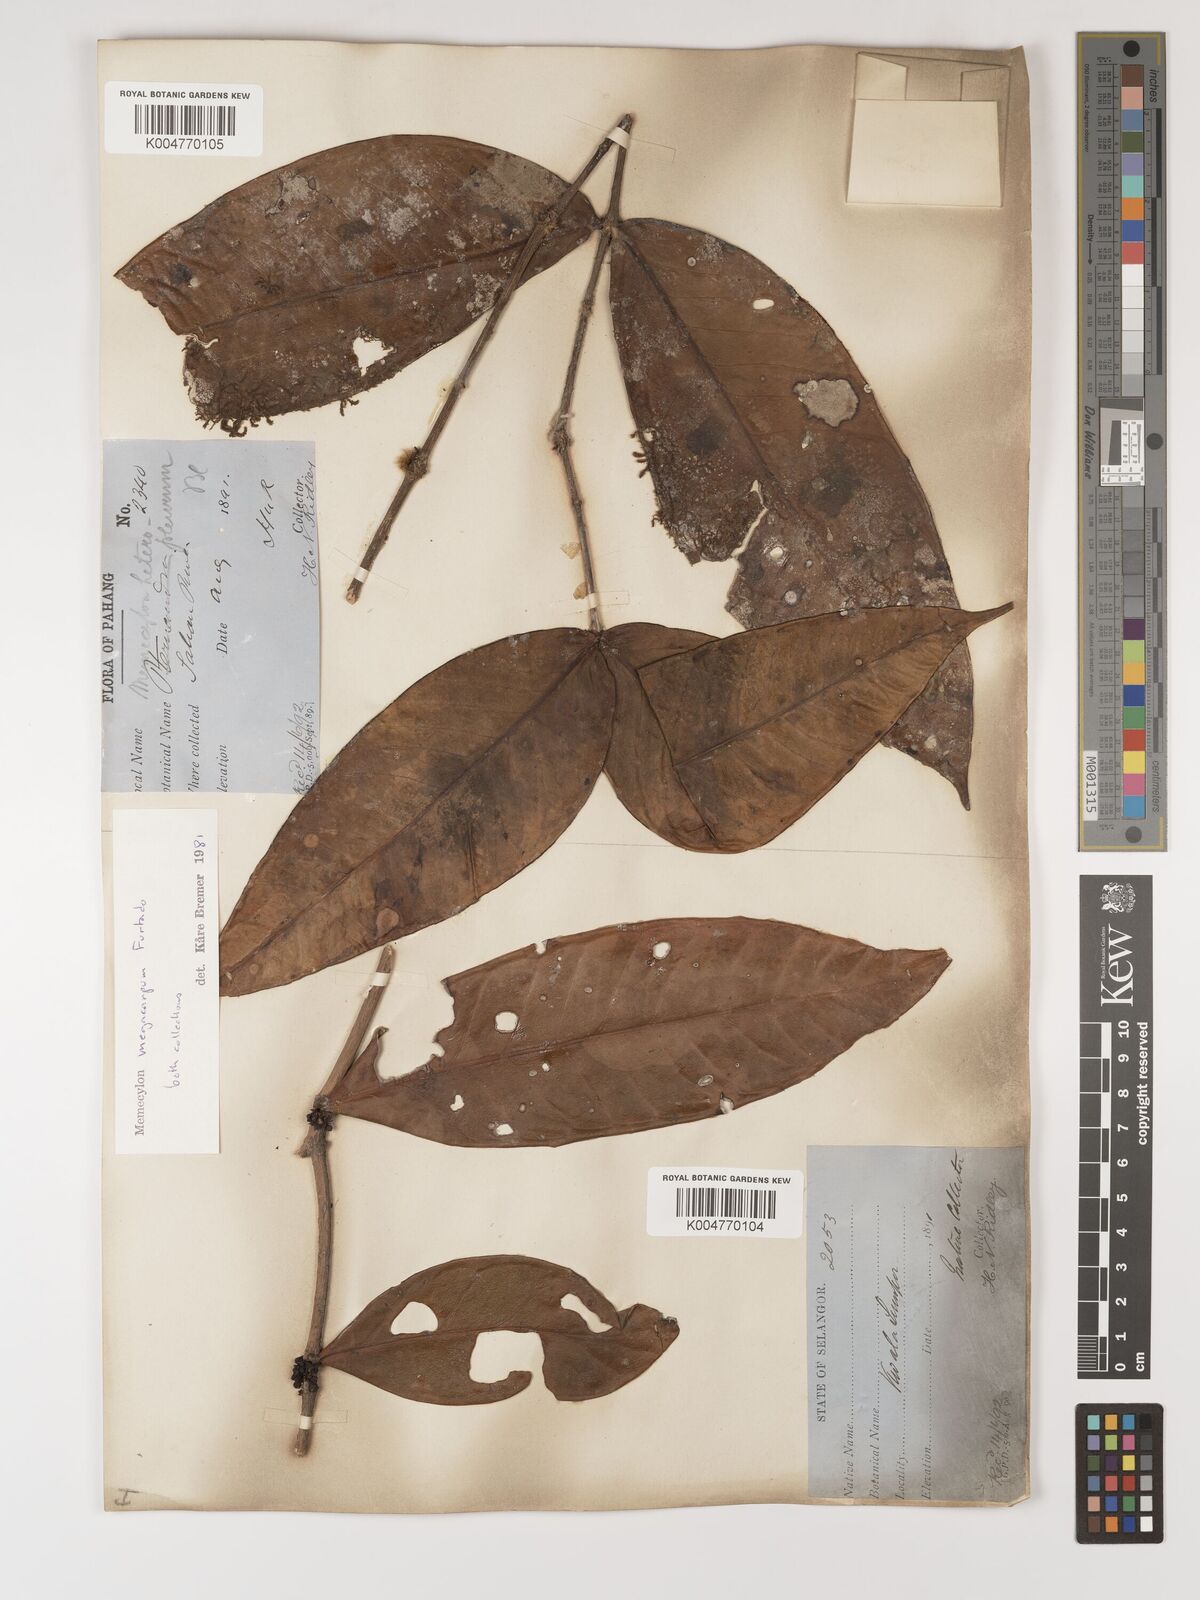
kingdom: Plantae
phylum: Tracheophyta
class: Magnoliopsida
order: Myrtales
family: Melastomataceae
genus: Memecylon
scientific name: Memecylon megacarpum
